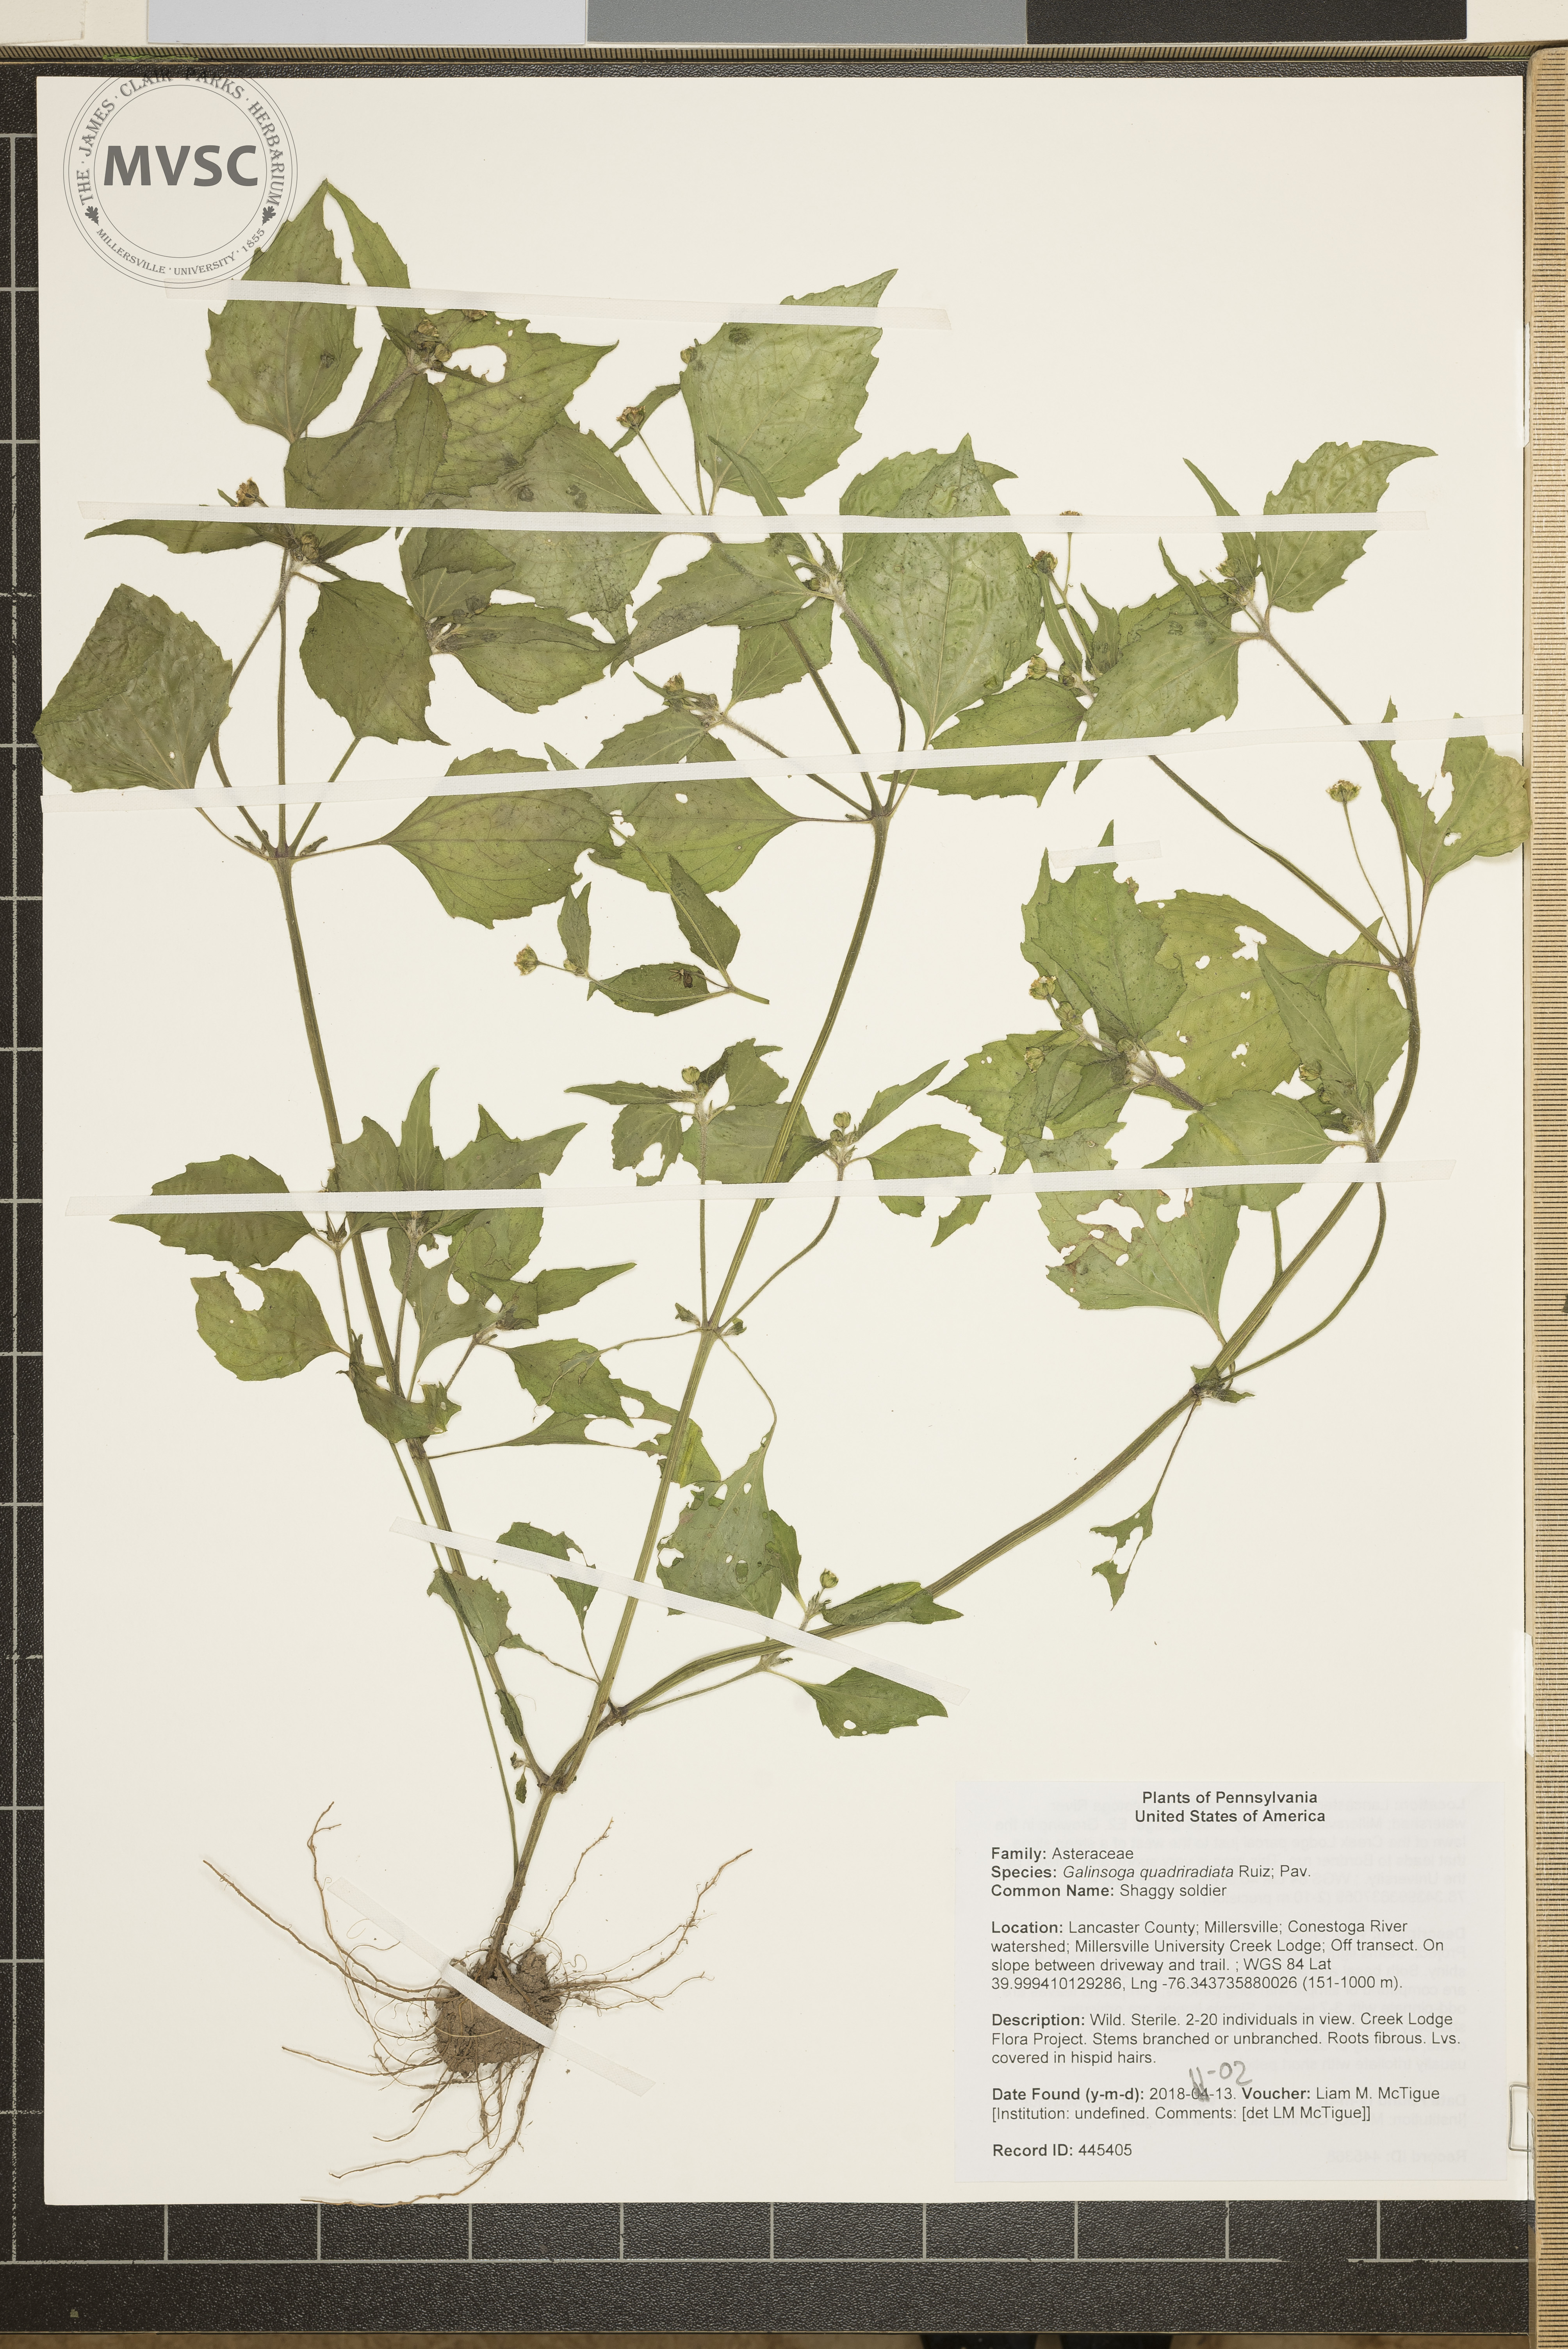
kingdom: Plantae
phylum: Tracheophyta
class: Magnoliopsida
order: Asterales
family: Asteraceae
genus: Galinsoga
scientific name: Galinsoga quadriradiata
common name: Shaggy soldier
